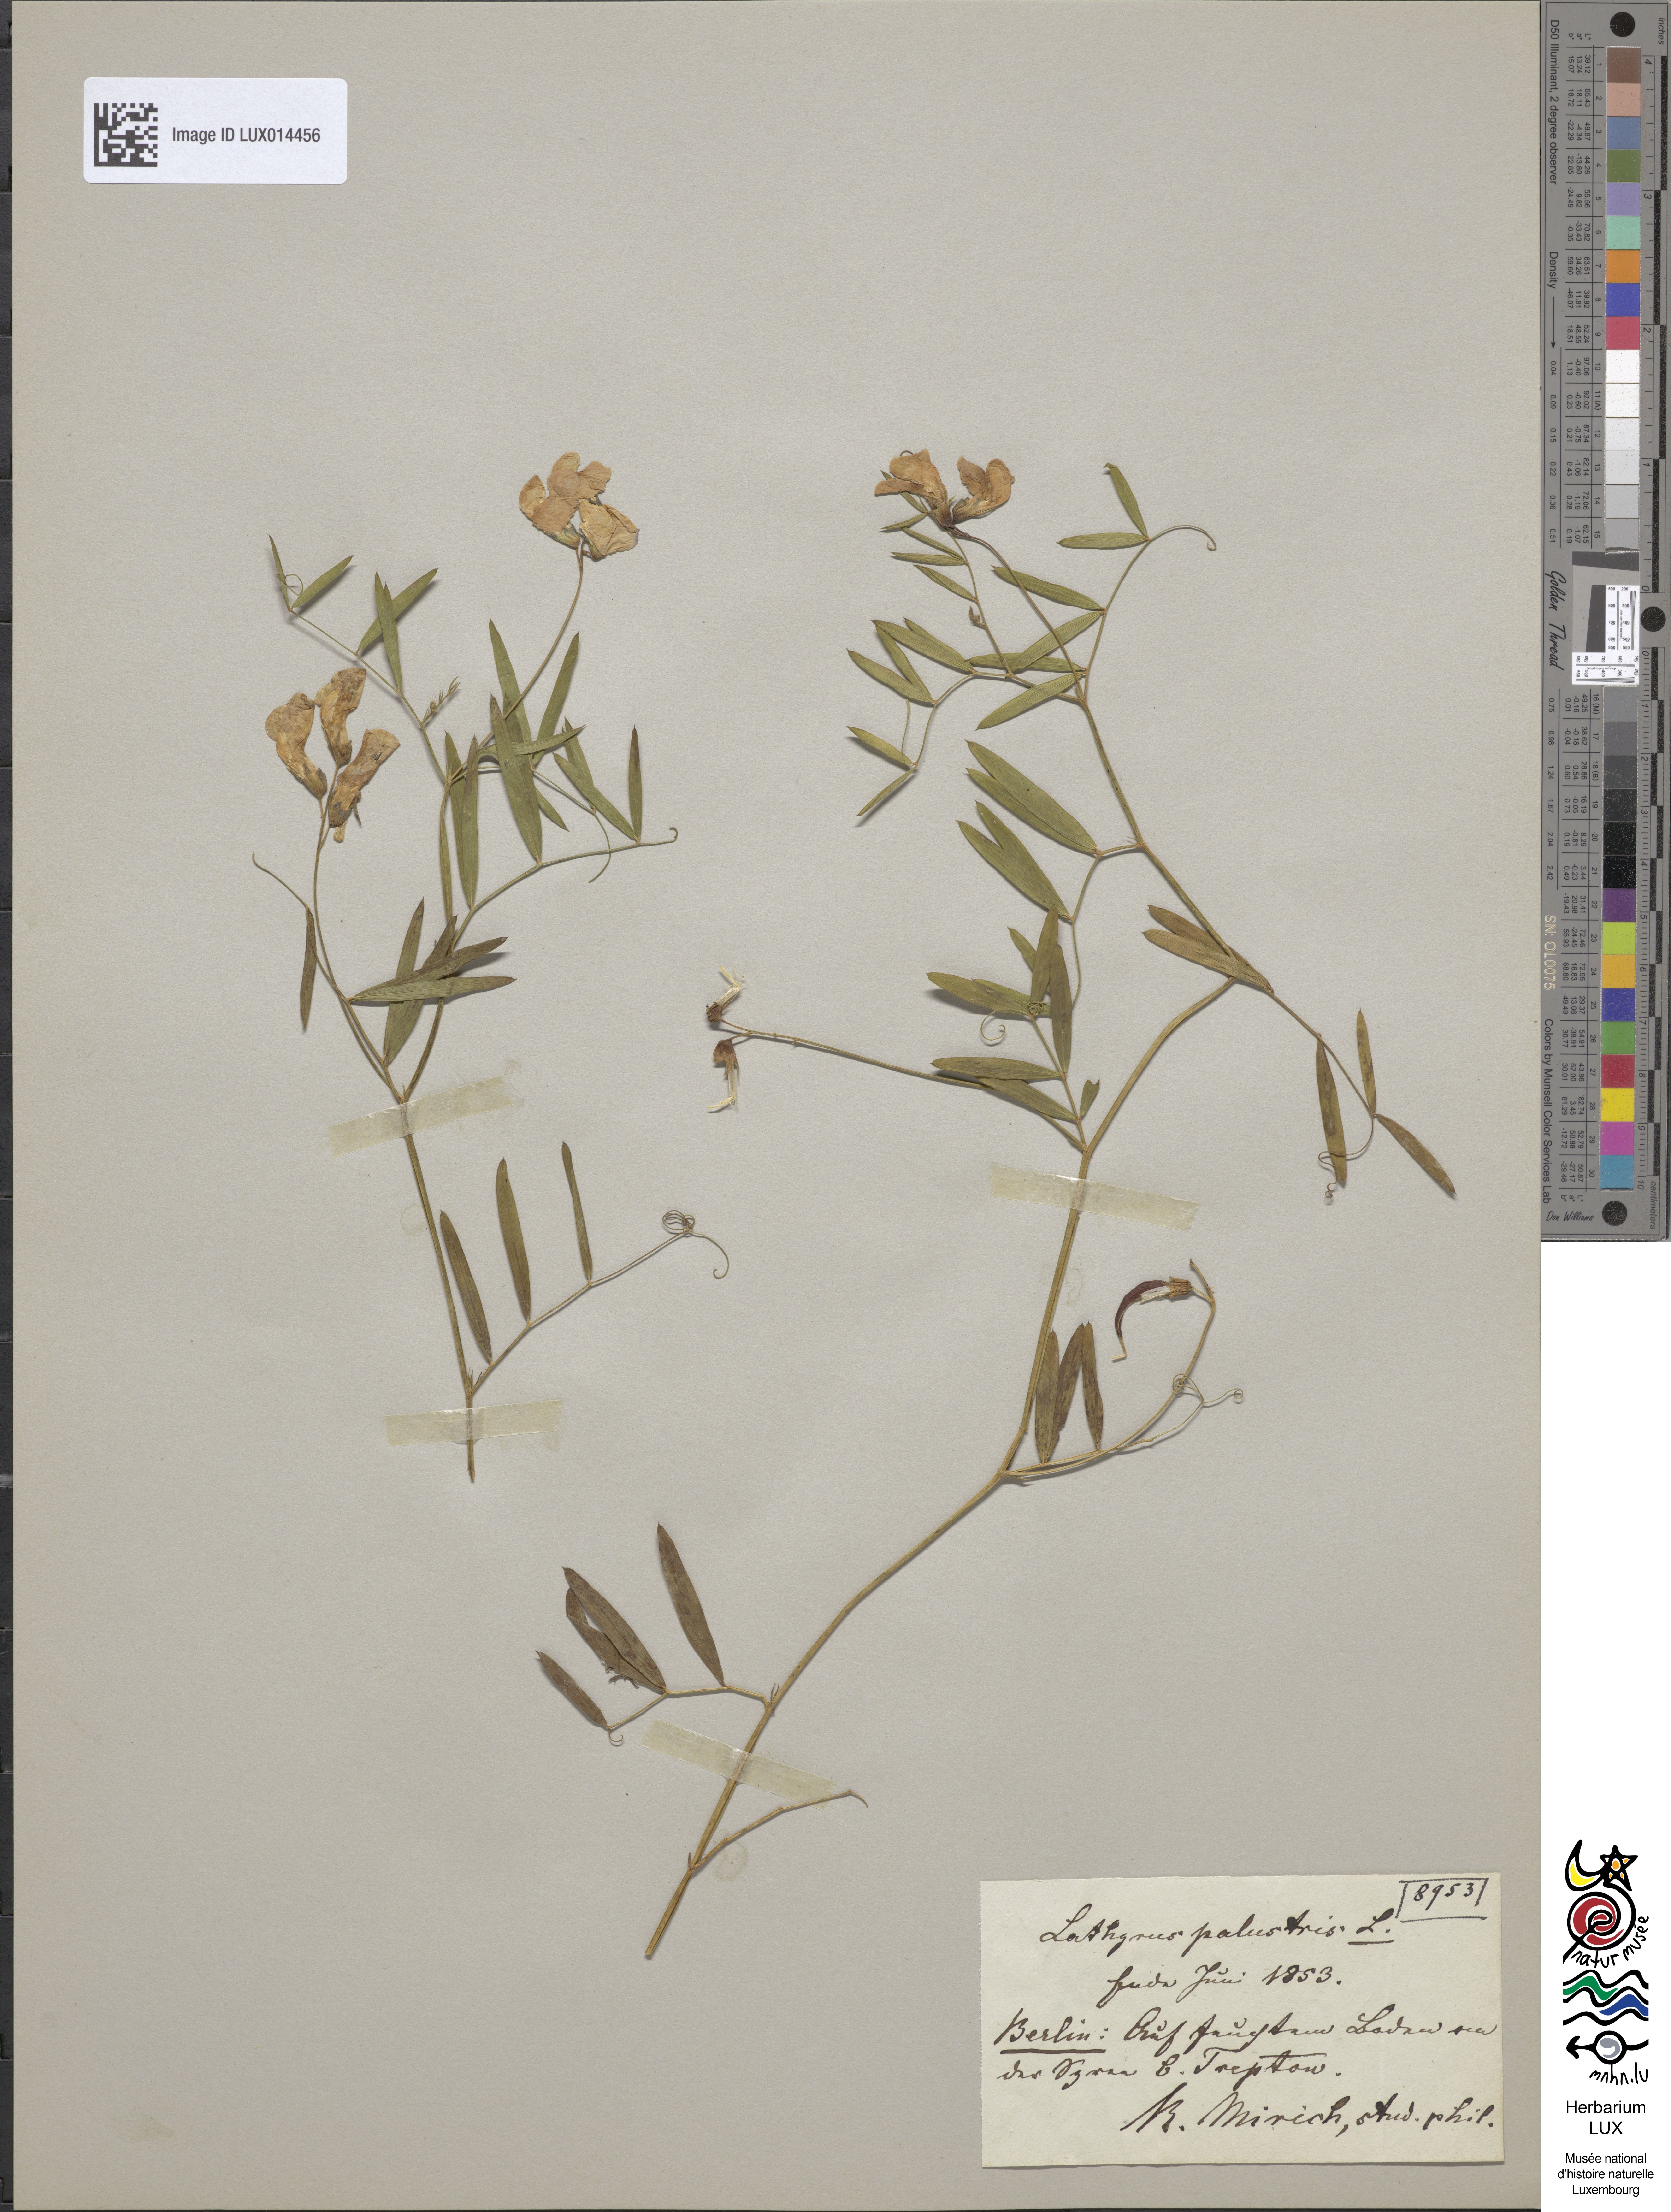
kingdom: Plantae
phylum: Tracheophyta
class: Magnoliopsida
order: Fabales
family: Fabaceae
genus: Lathyrus
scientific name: Lathyrus palustris
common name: Marsh pea
